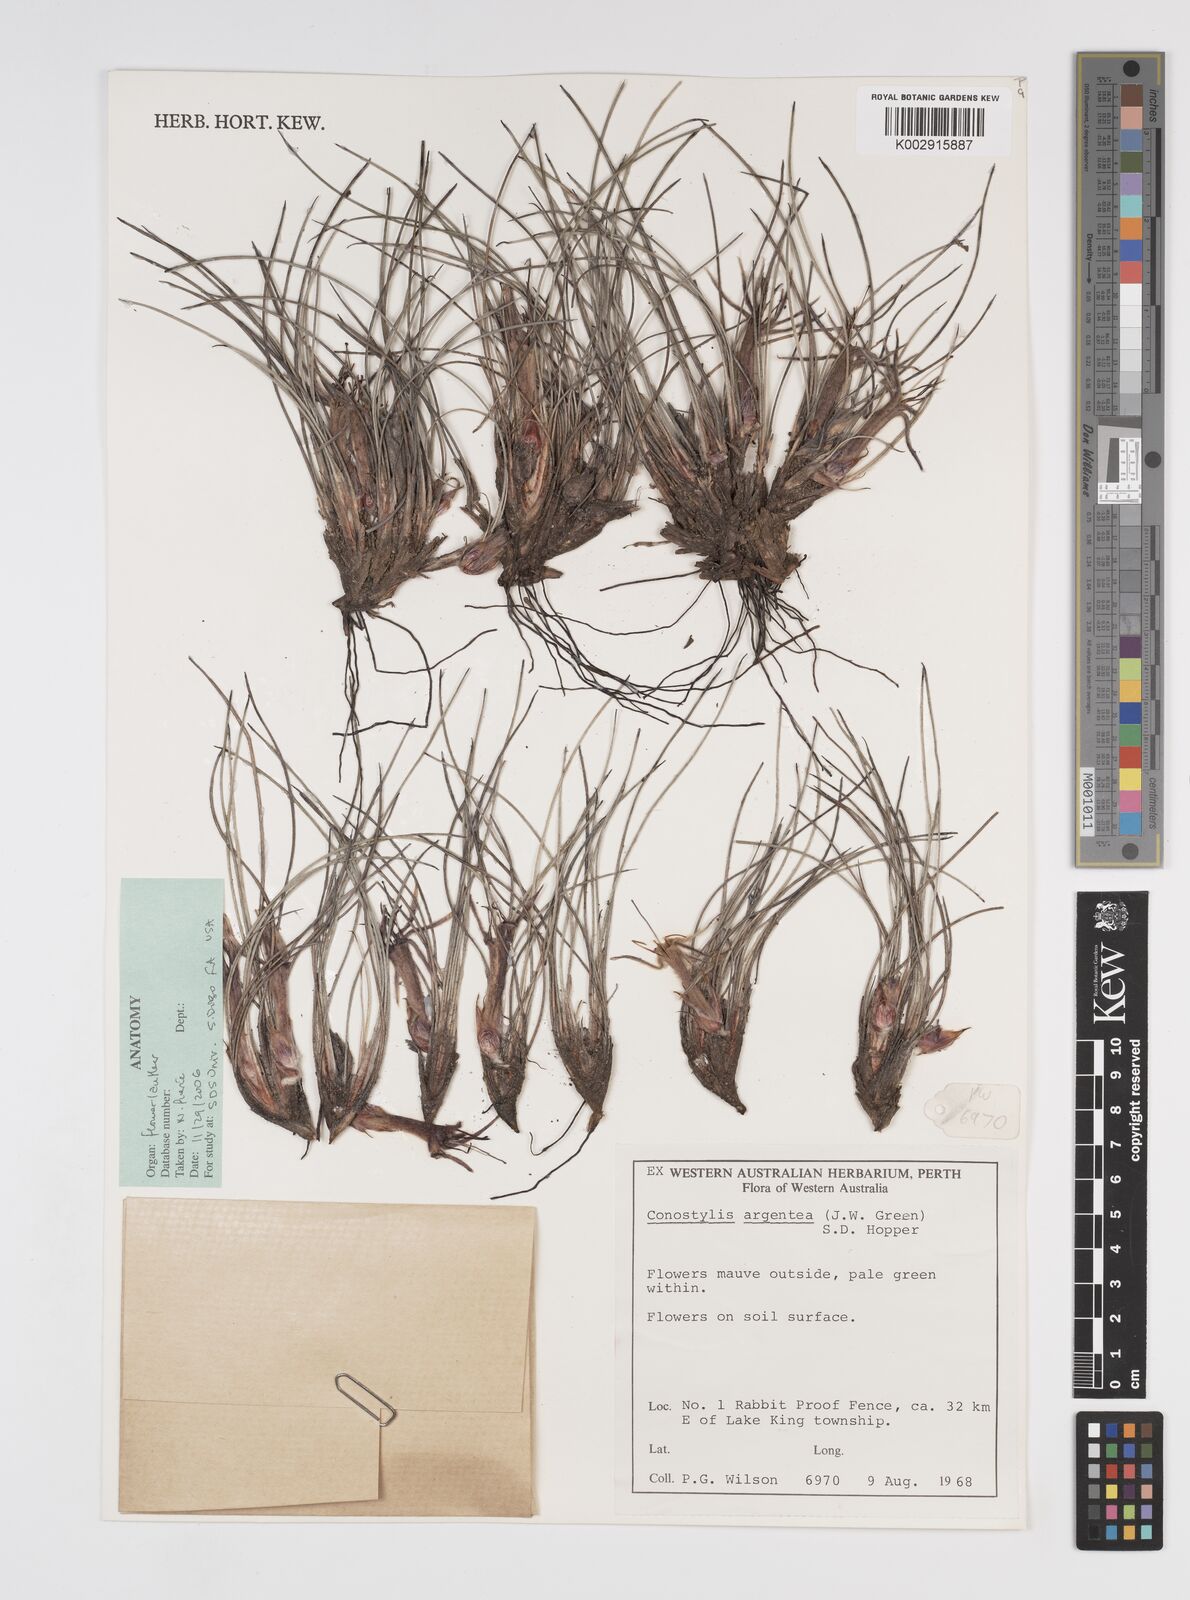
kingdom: Plantae
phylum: Tracheophyta
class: Liliopsida
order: Commelinales
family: Haemodoraceae
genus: Conostylis
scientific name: Conostylis argentea
